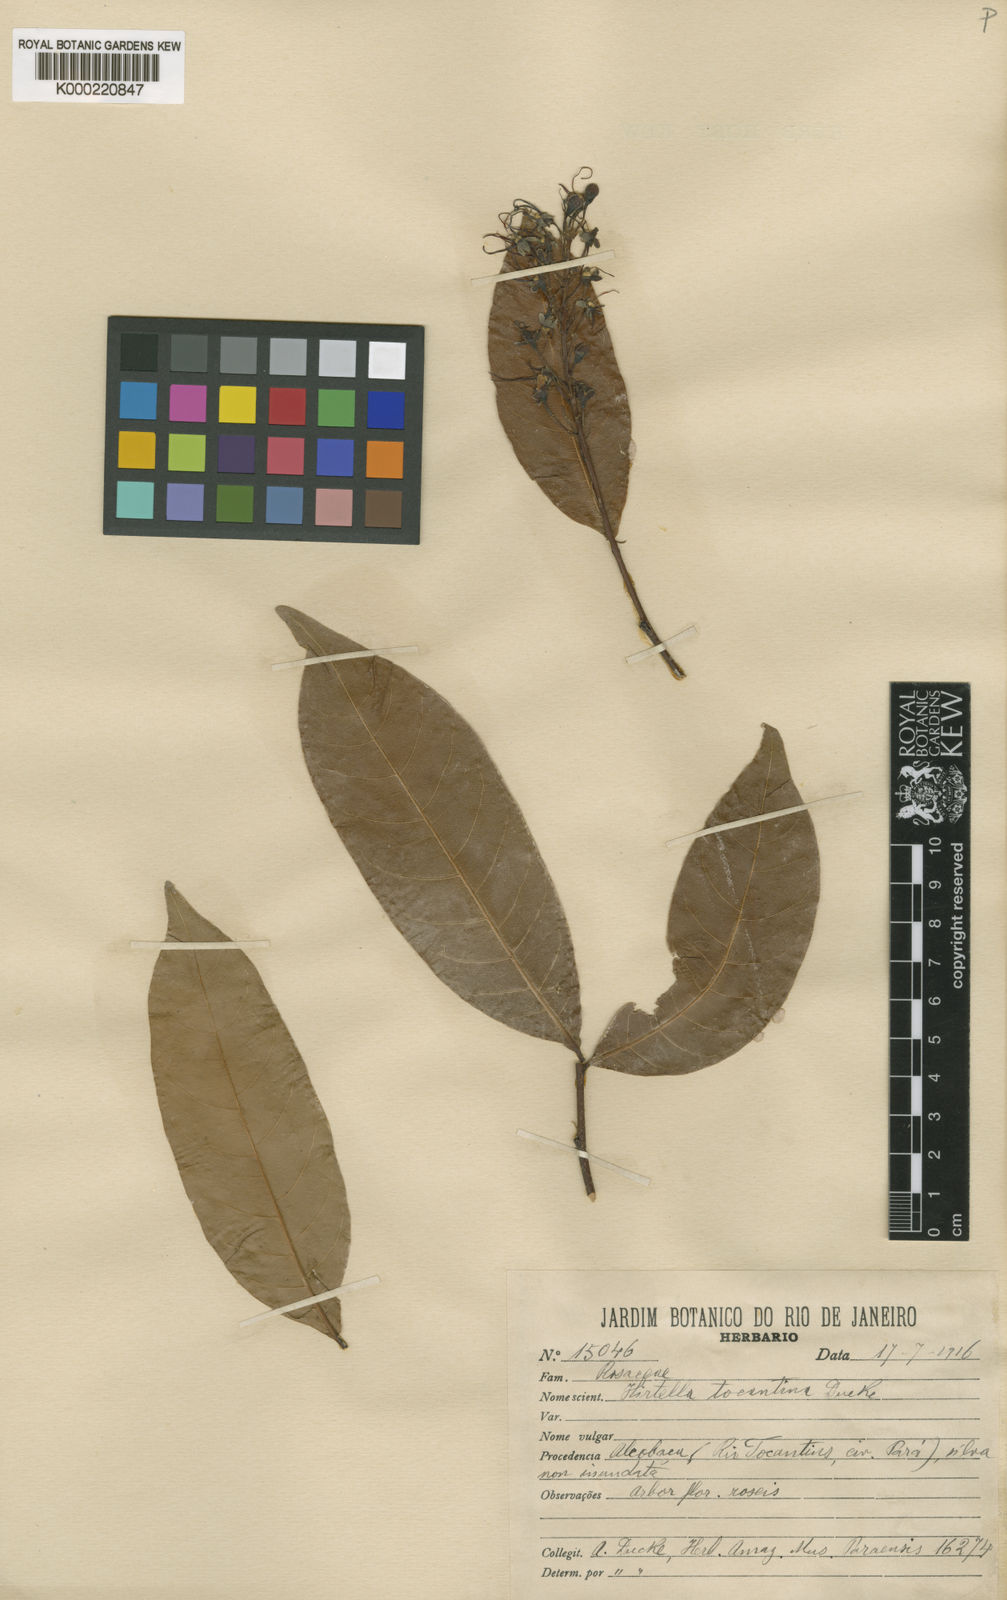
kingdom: Plantae
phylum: Tracheophyta
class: Magnoliopsida
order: Malpighiales
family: Chrysobalanaceae
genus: Hirtella
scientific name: Hirtella tocantina
